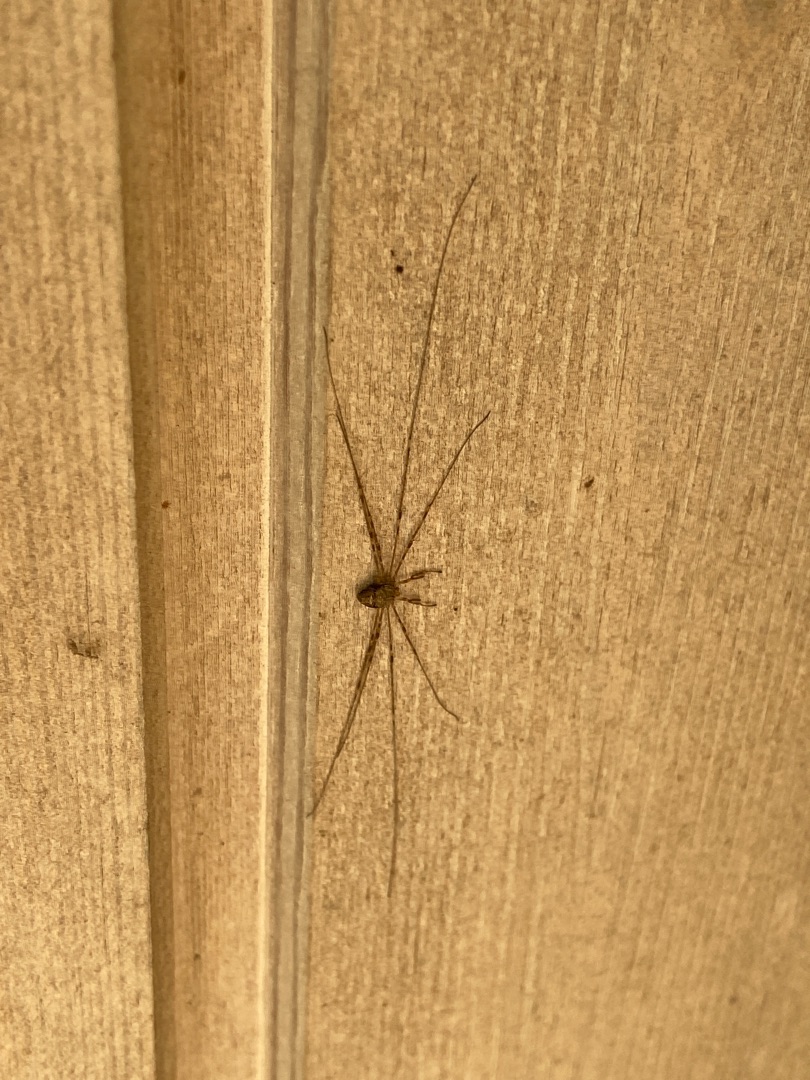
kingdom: Animalia
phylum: Arthropoda
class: Arachnida
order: Opiliones
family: Phalangiidae
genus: Dicranopalpus
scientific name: Dicranopalpus ramosus
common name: Gaffelmejer
